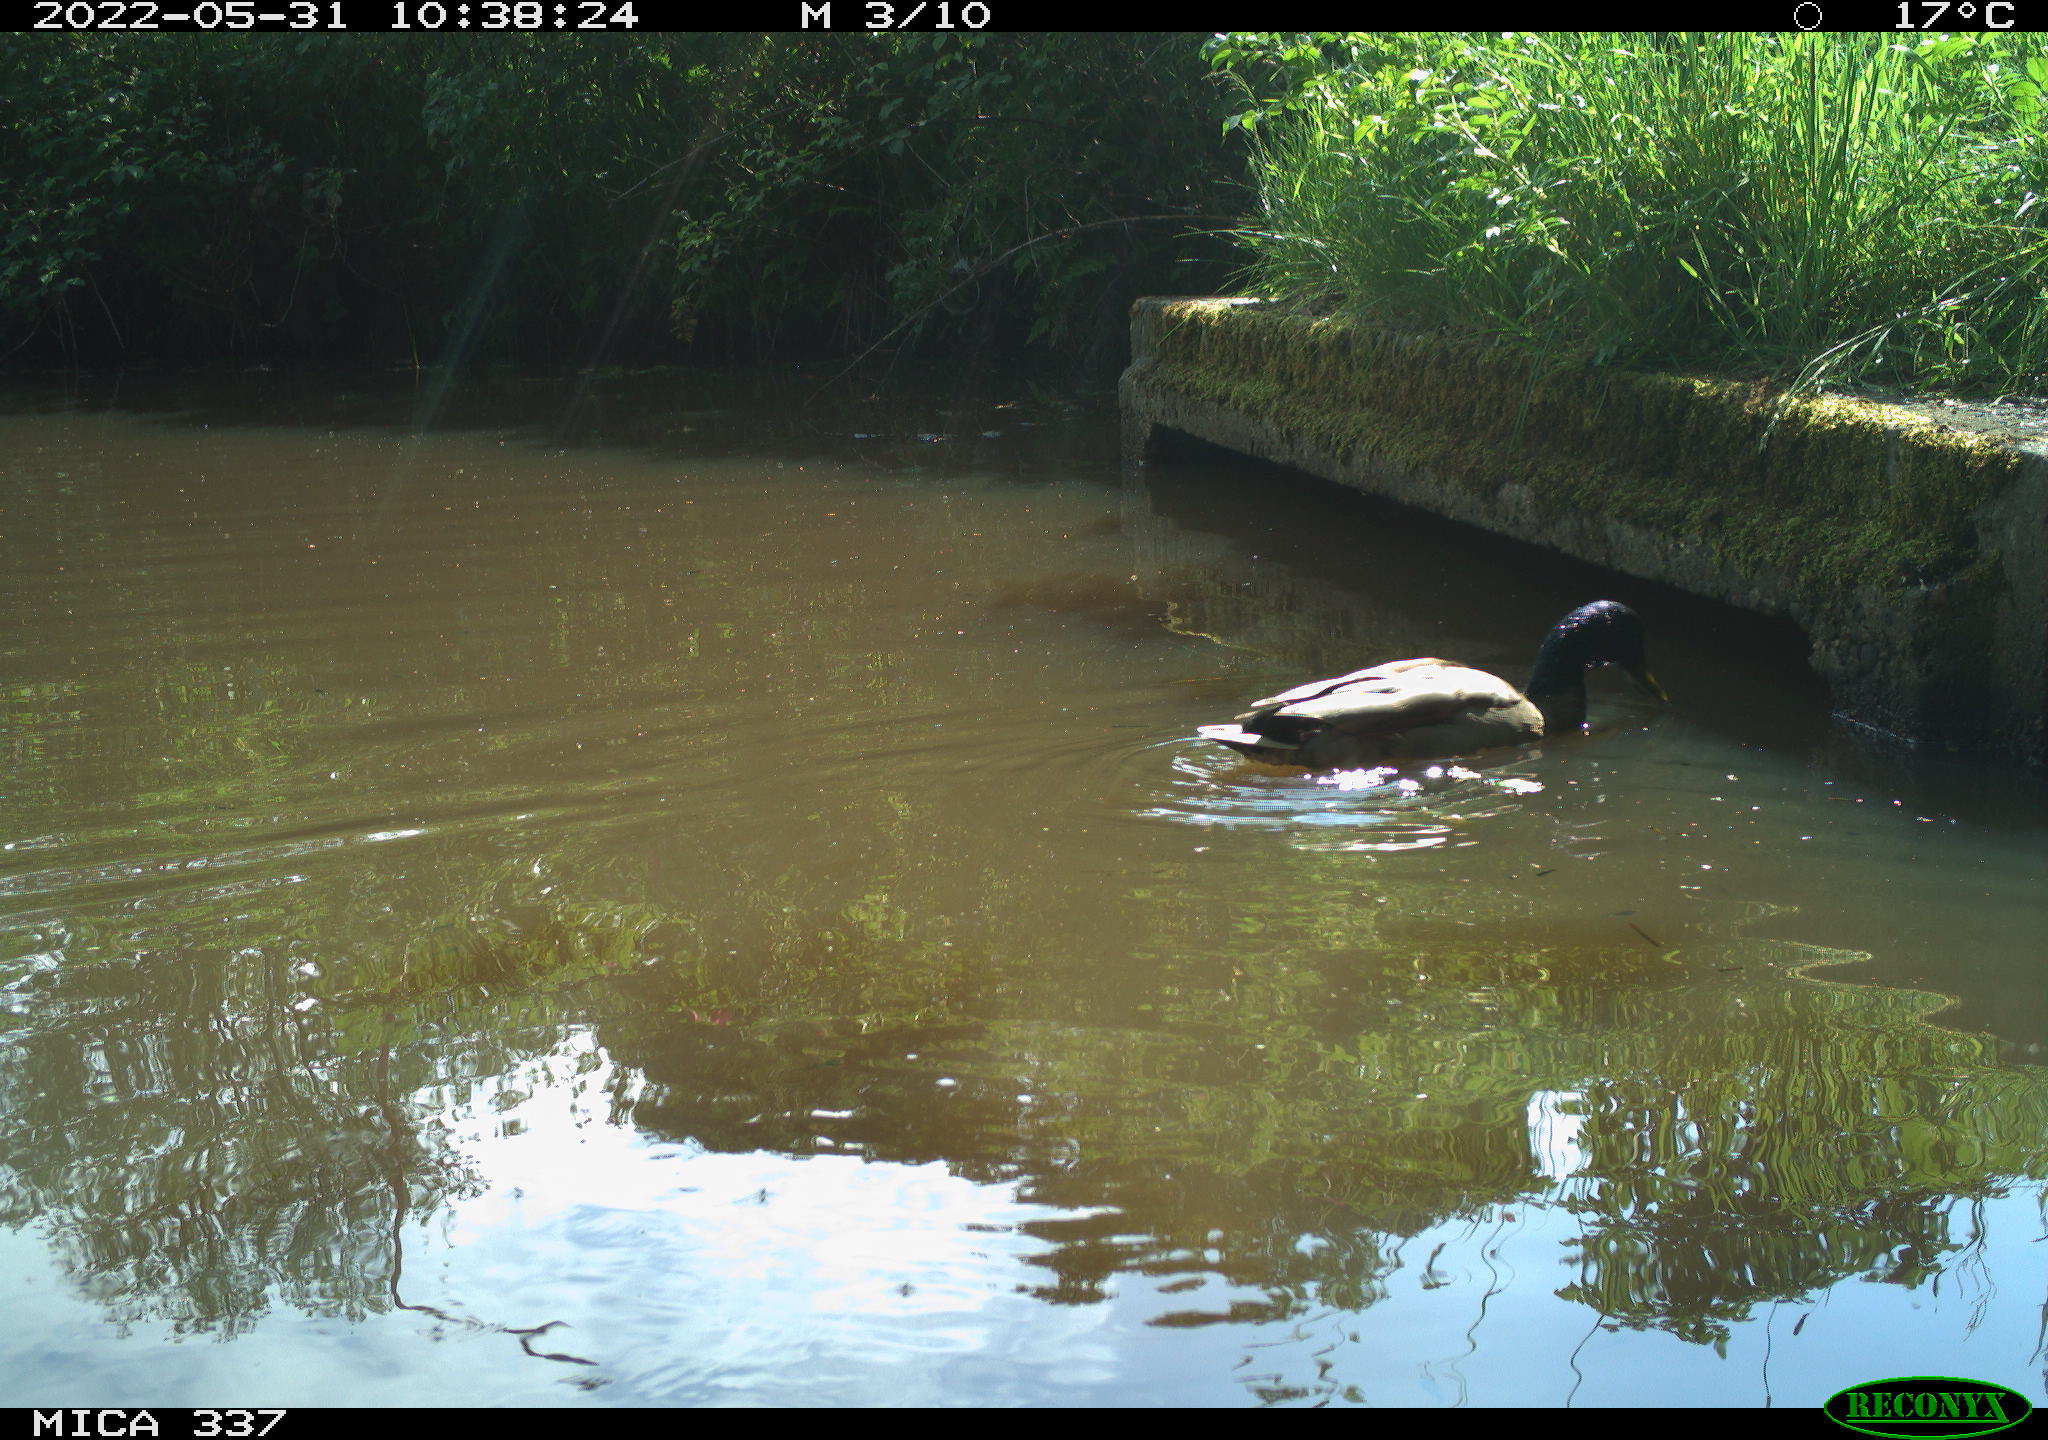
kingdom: Animalia
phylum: Chordata
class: Aves
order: Anseriformes
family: Anatidae
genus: Anas
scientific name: Anas platyrhynchos
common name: Mallard
